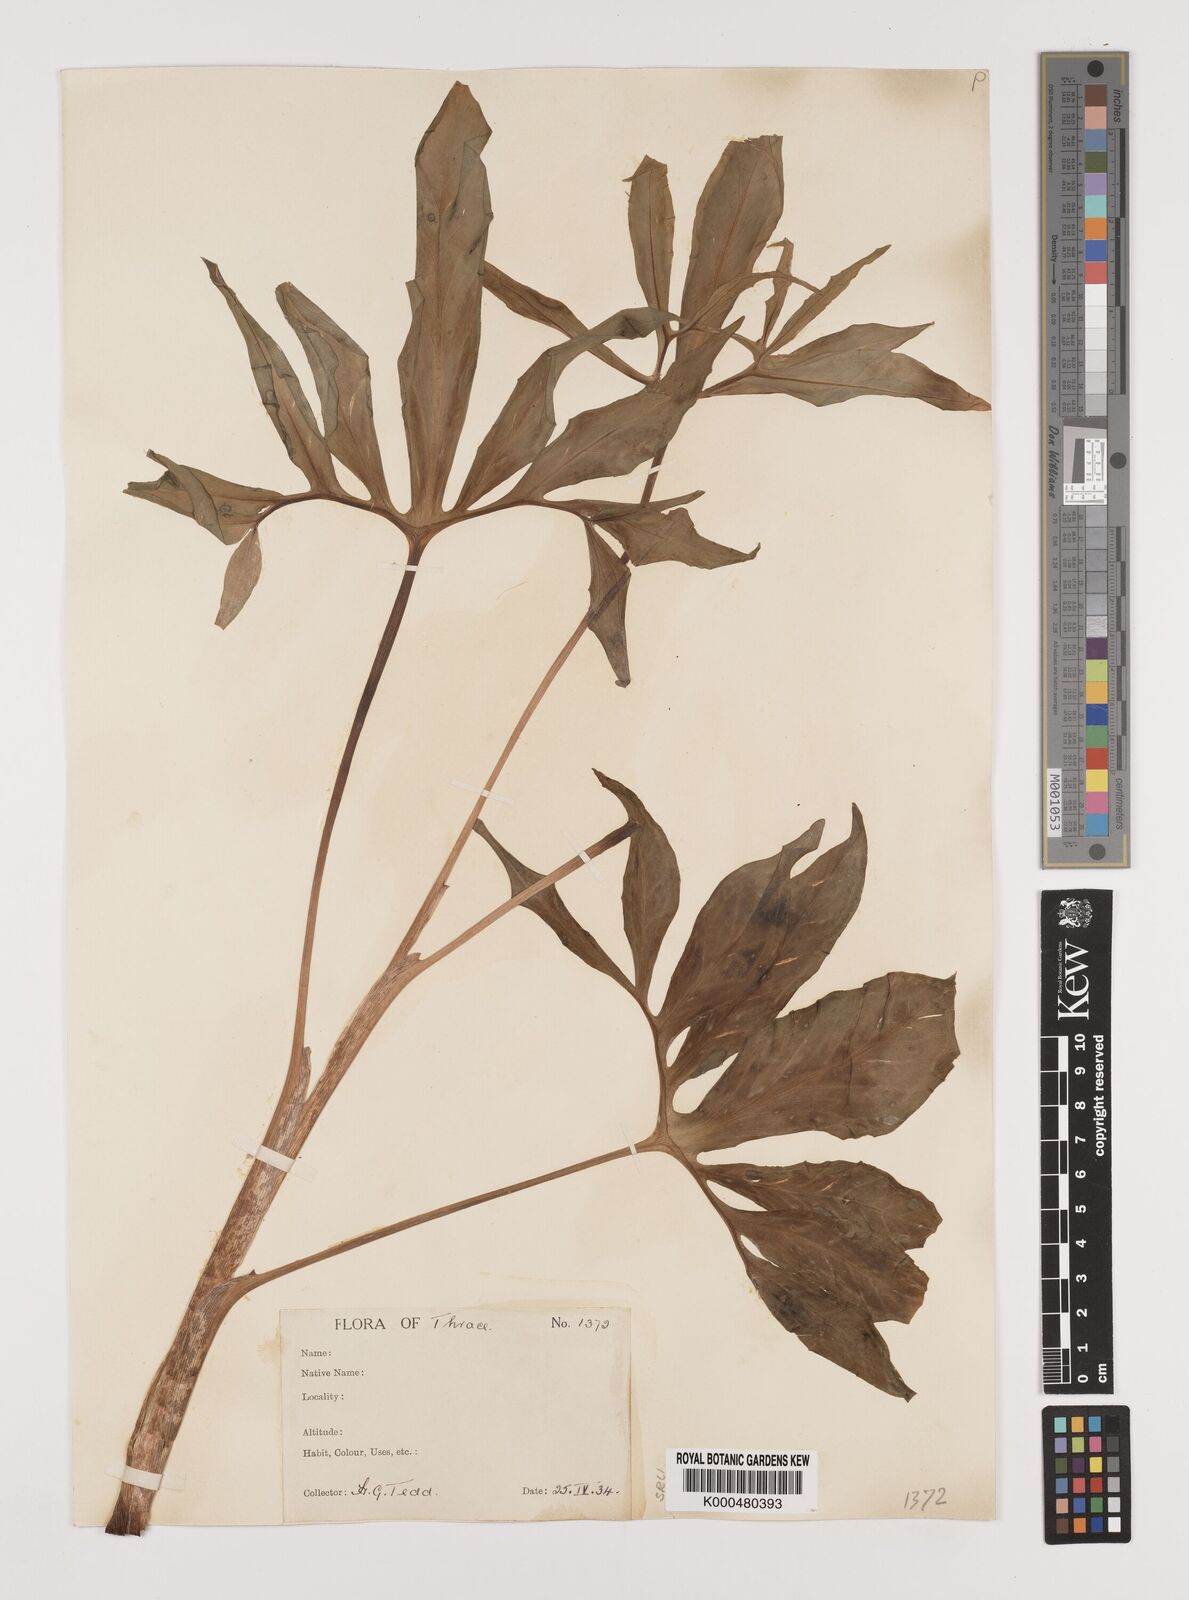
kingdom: Plantae
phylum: Tracheophyta
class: Liliopsida
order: Alismatales
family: Araceae
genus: Dracunculus
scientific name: Dracunculus vulgaris
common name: Dragon arum
